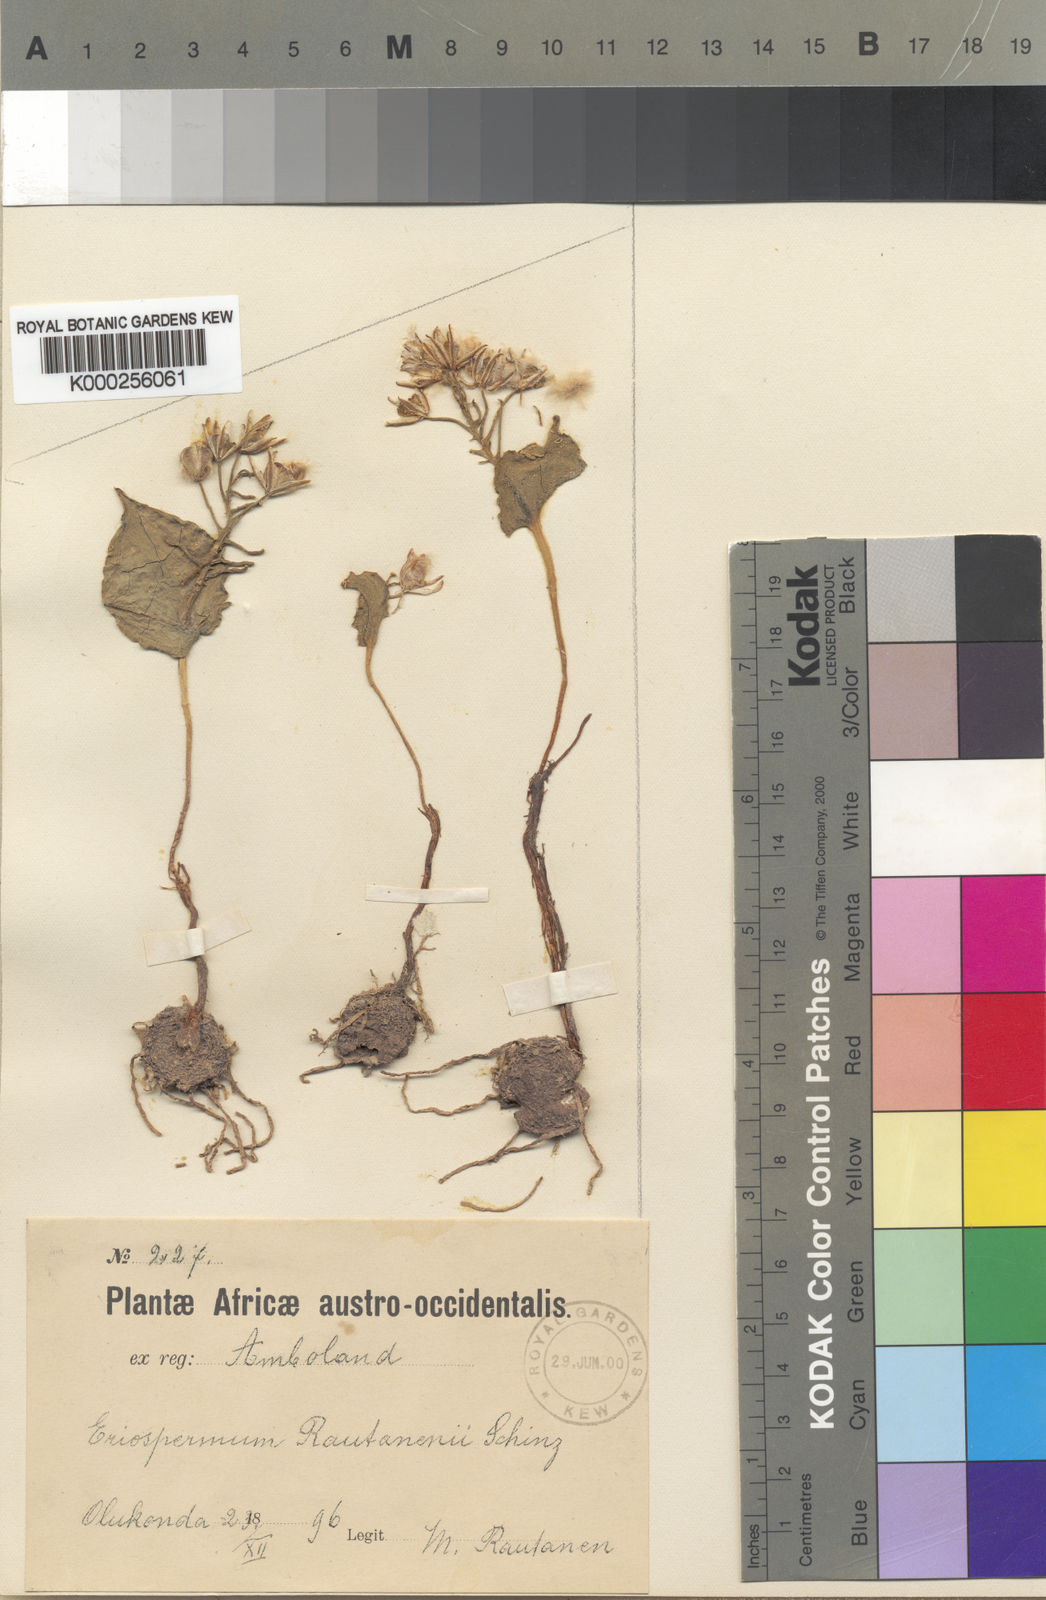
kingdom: Plantae
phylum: Tracheophyta
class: Liliopsida
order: Asparagales
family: Asparagaceae
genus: Eriospermum
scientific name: Eriospermum currorii
